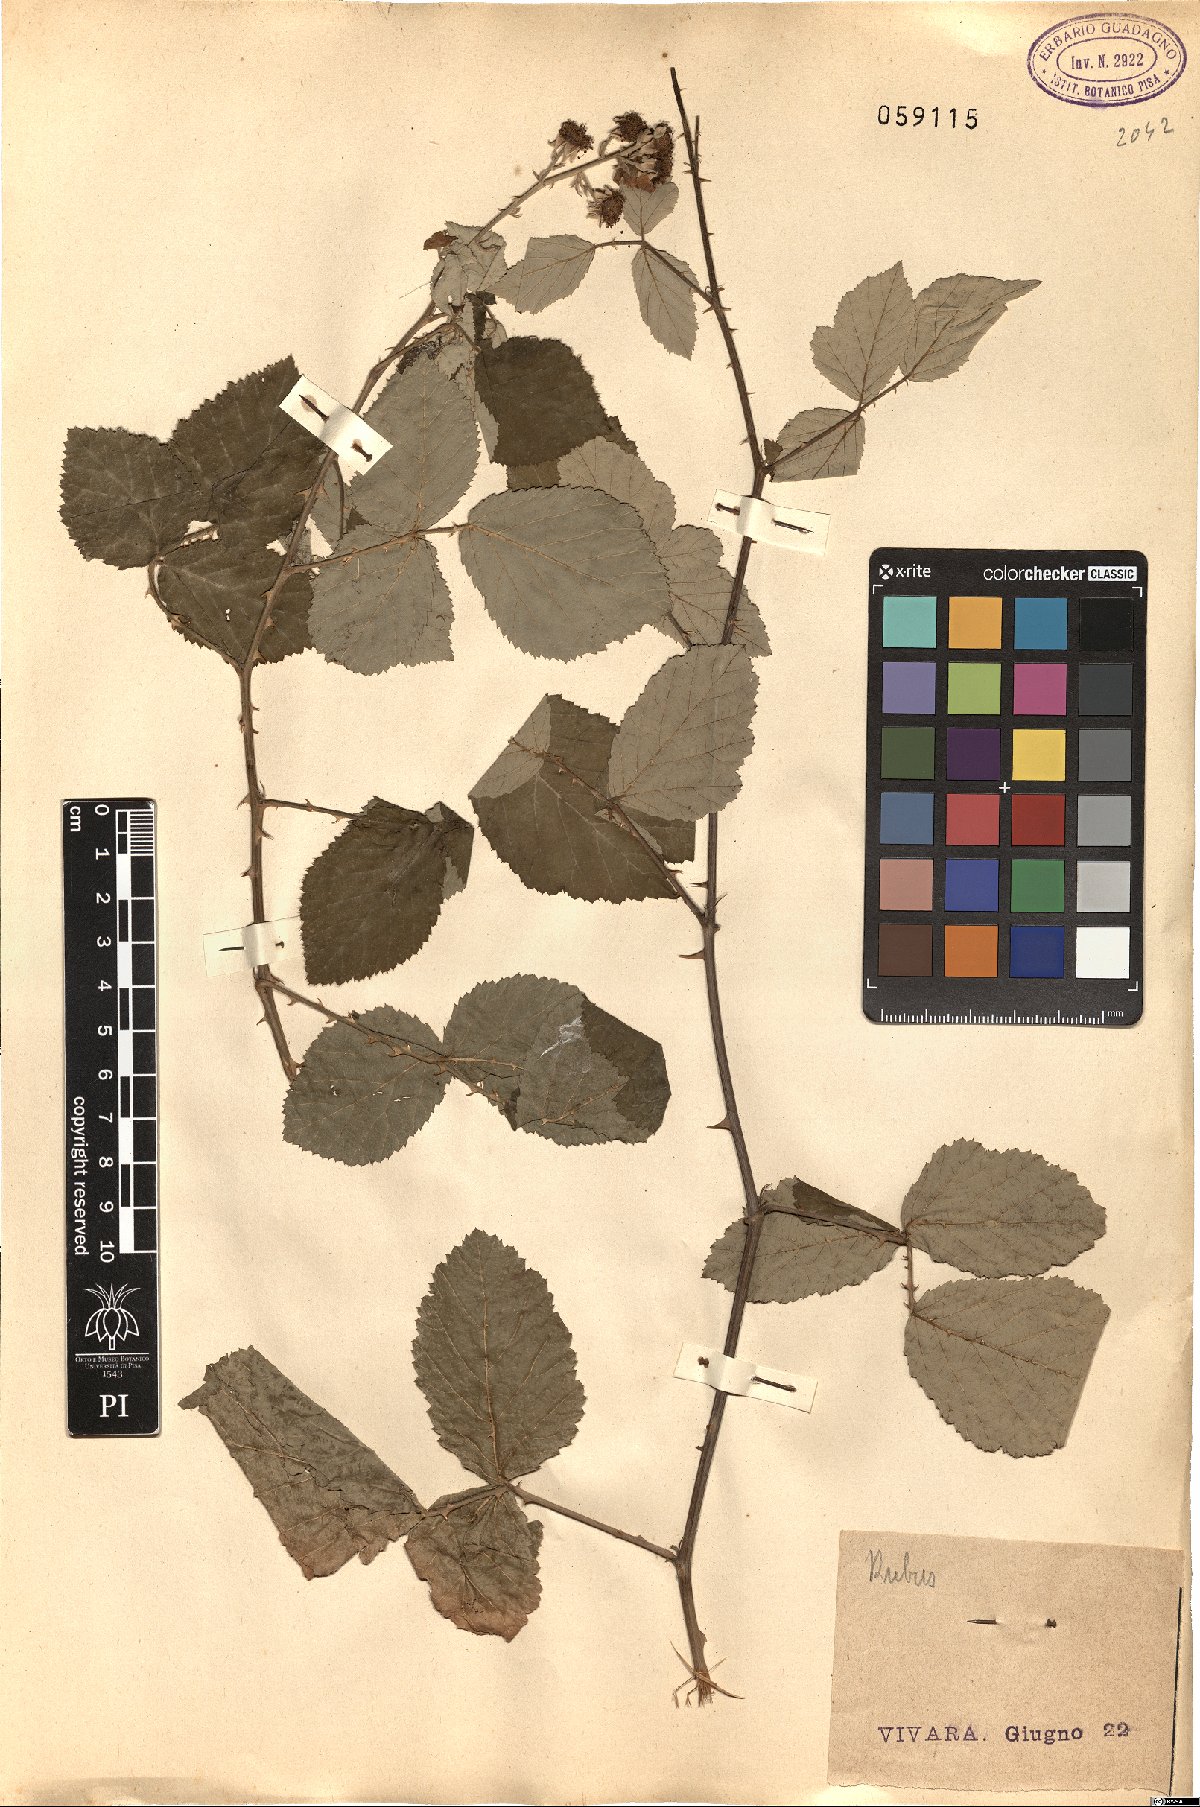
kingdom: Plantae
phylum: Tracheophyta
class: Magnoliopsida
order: Rosales
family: Rosaceae
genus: Rubus
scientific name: Rubus
